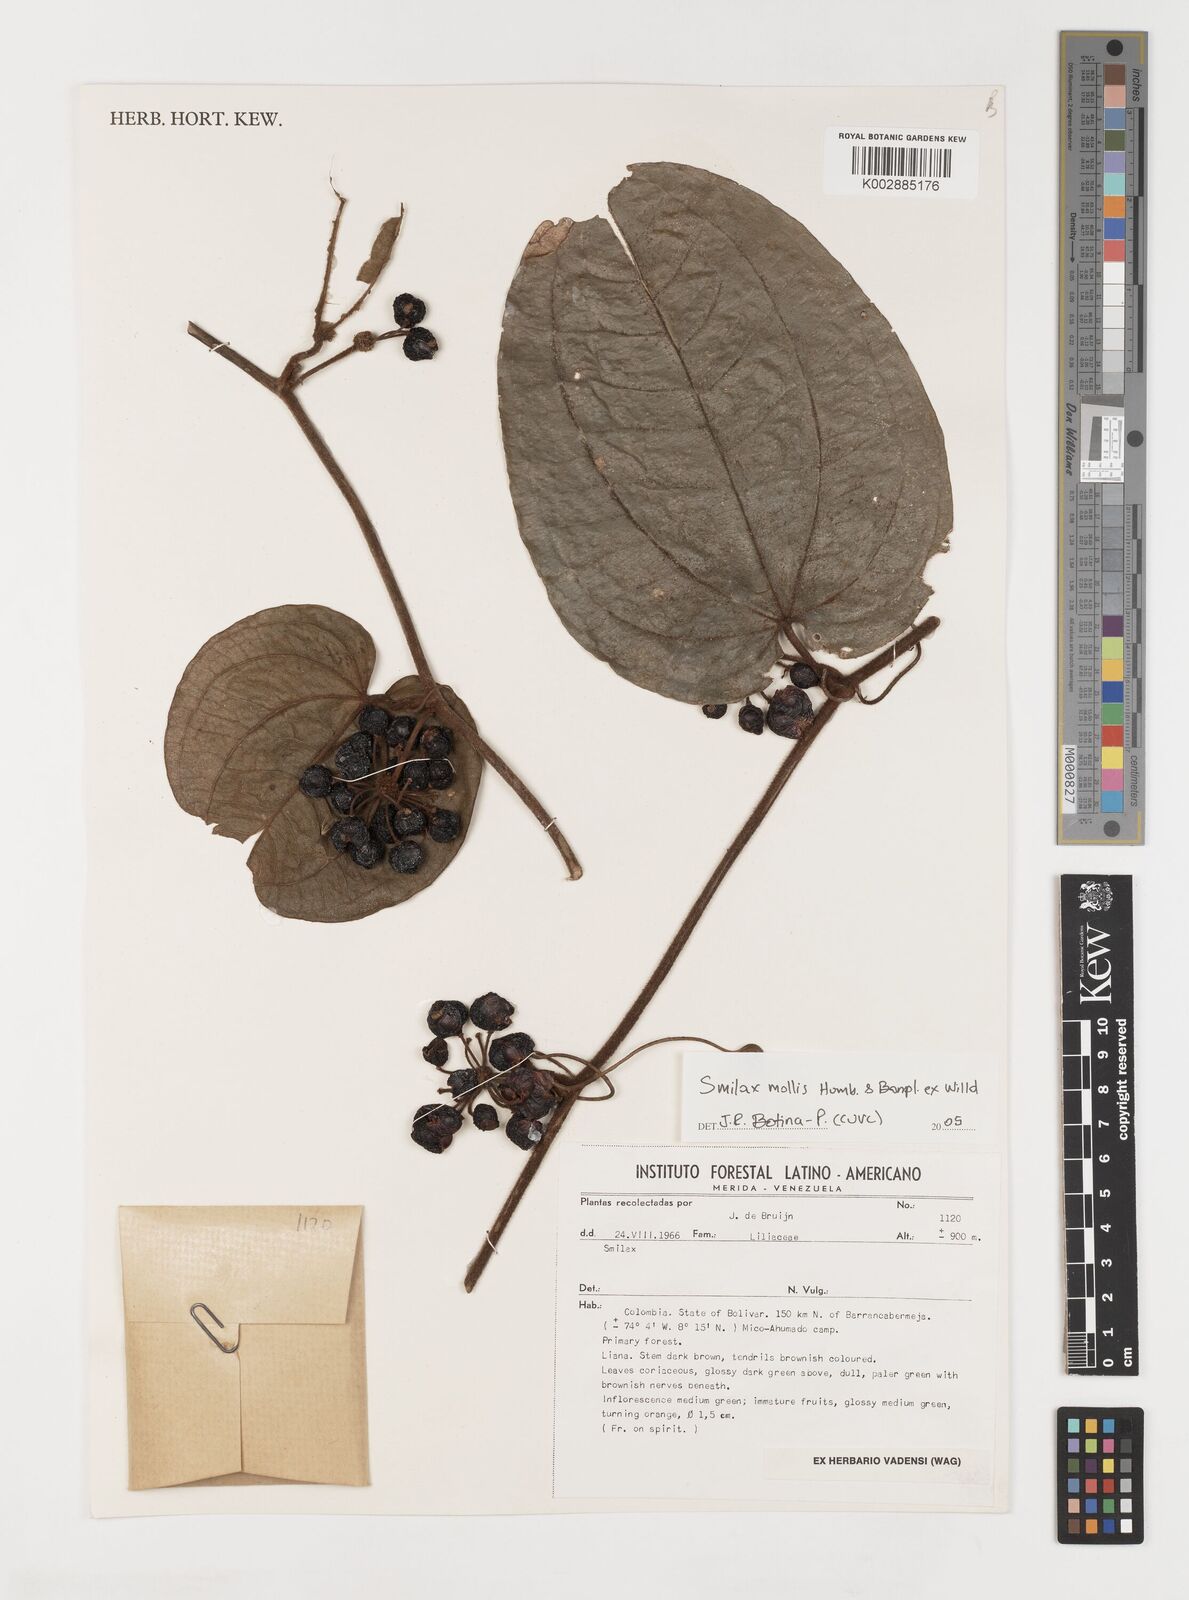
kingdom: Plantae
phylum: Tracheophyta
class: Liliopsida
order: Liliales
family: Smilacaceae
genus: Smilax
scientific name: Smilax mollis
